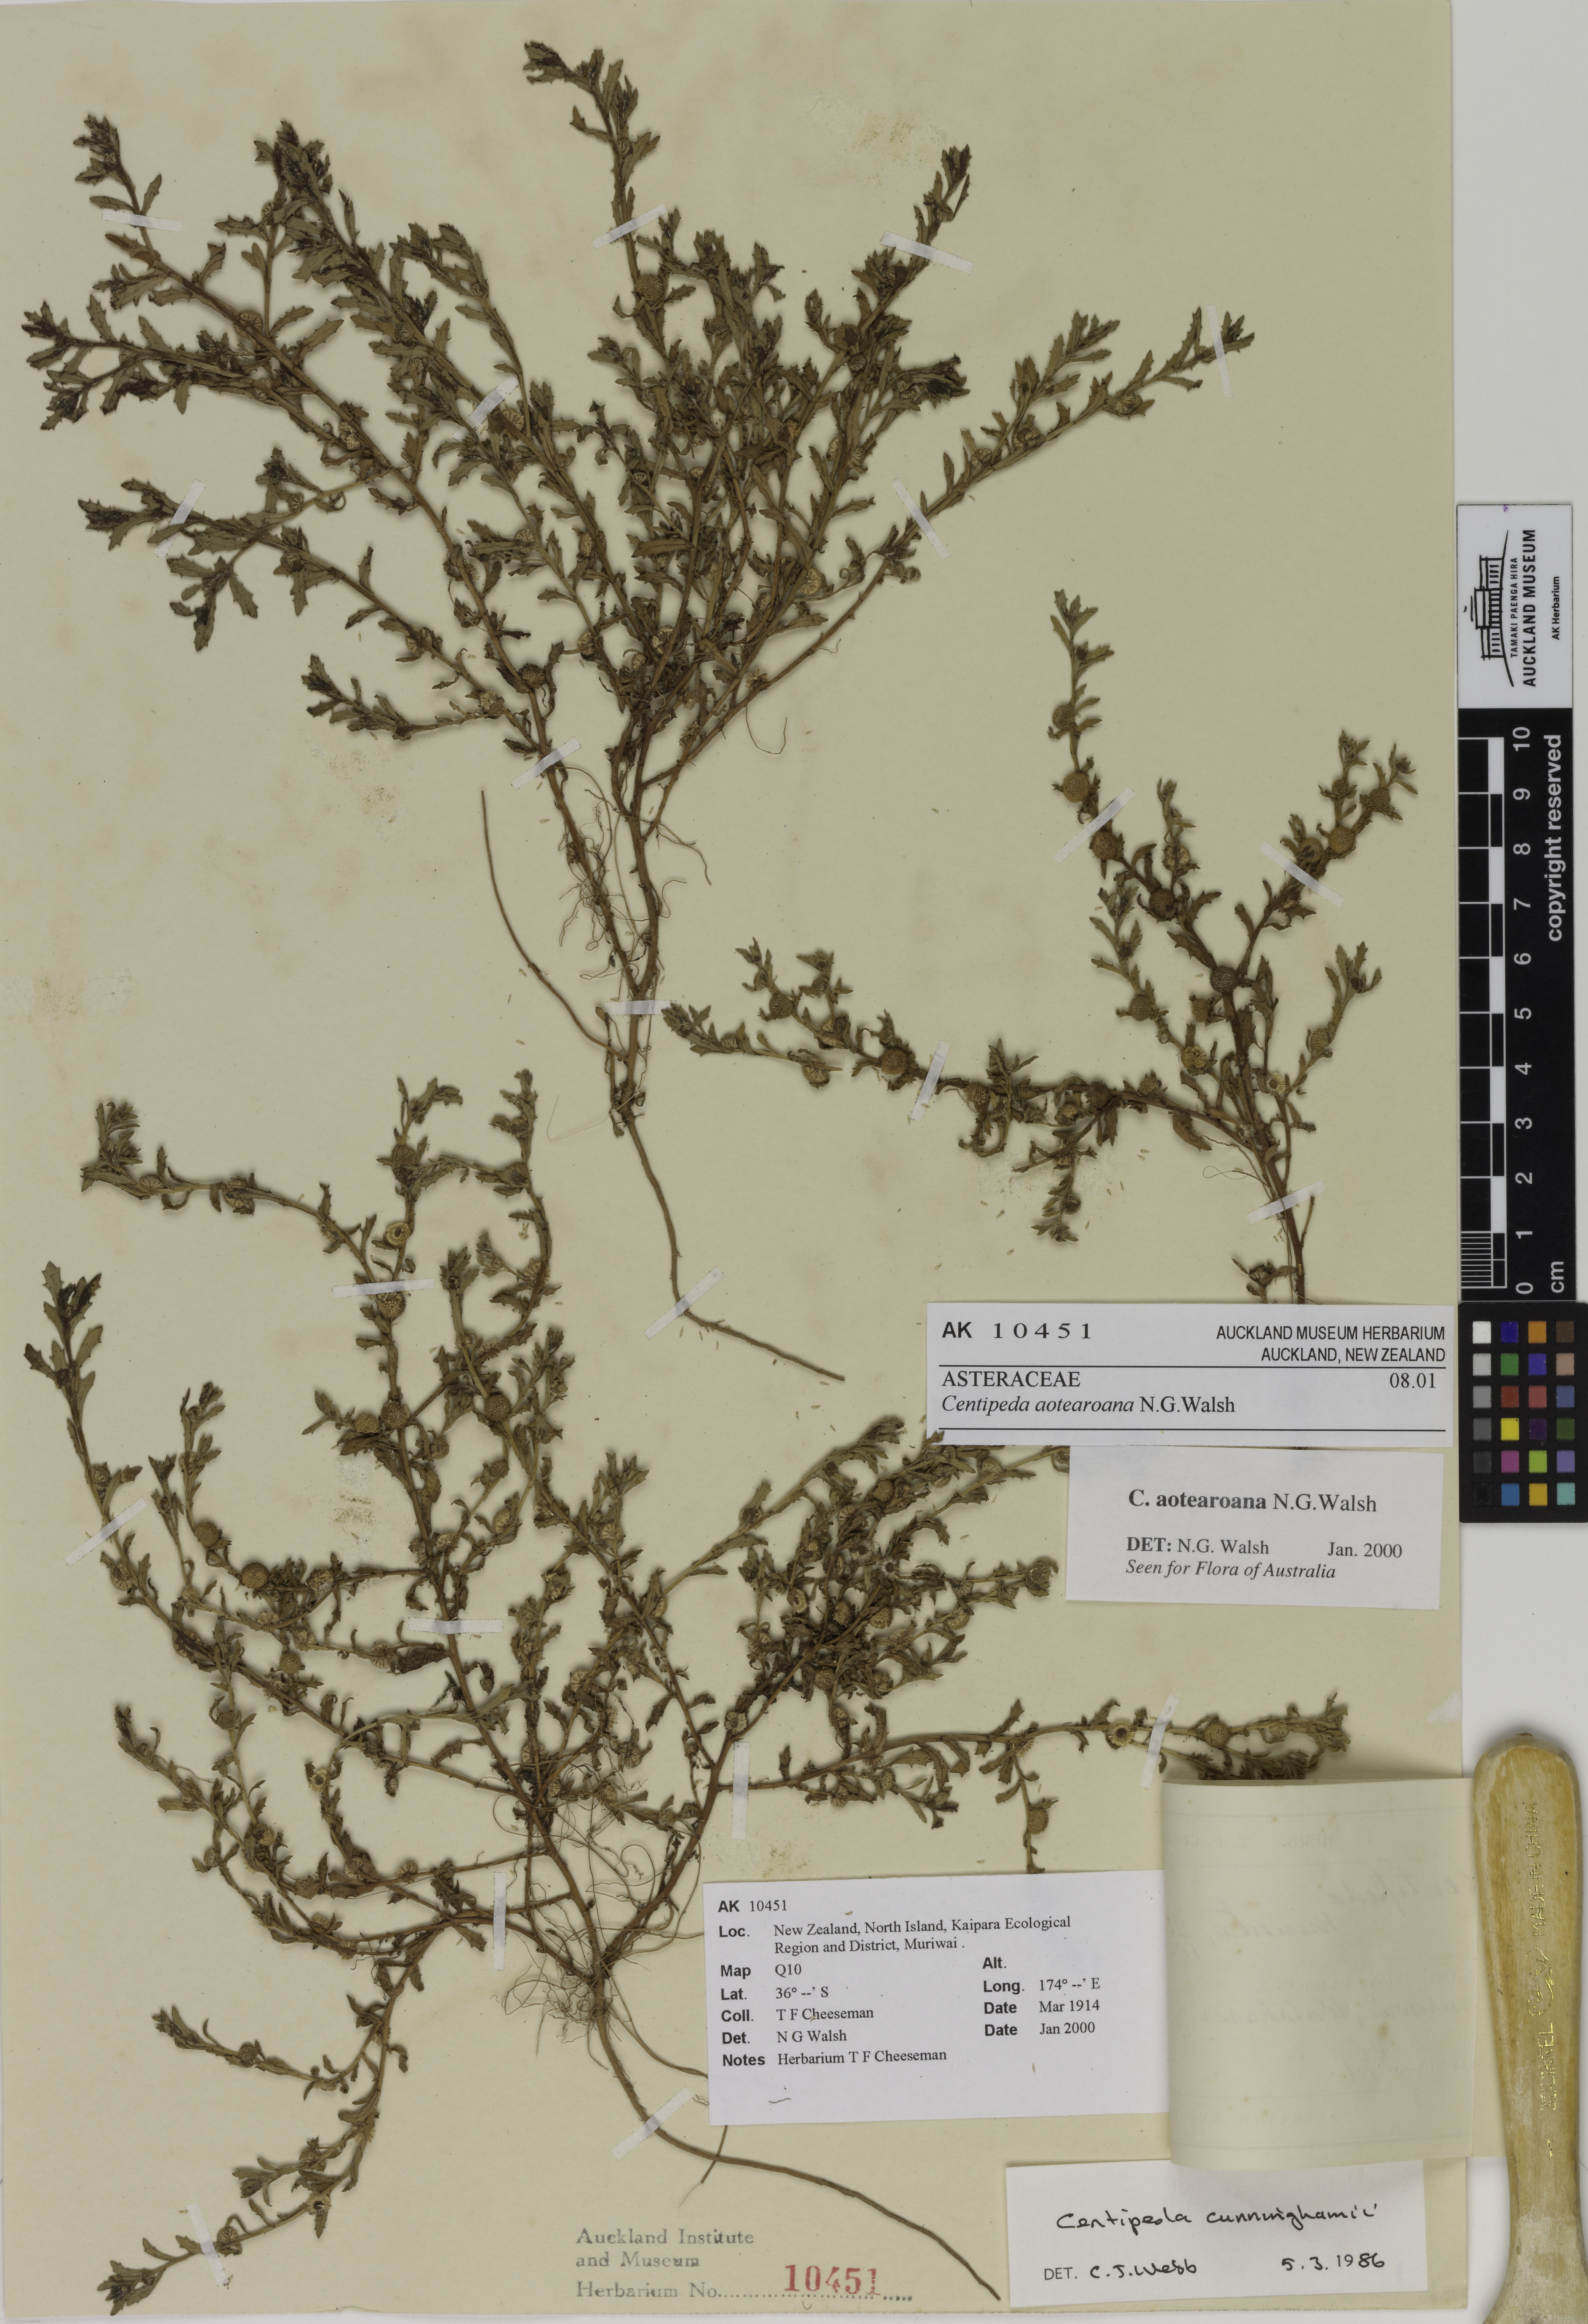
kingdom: Plantae
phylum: Tracheophyta
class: Magnoliopsida
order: Asterales
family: Asteraceae
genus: Centipeda
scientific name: Centipeda aotearoana
